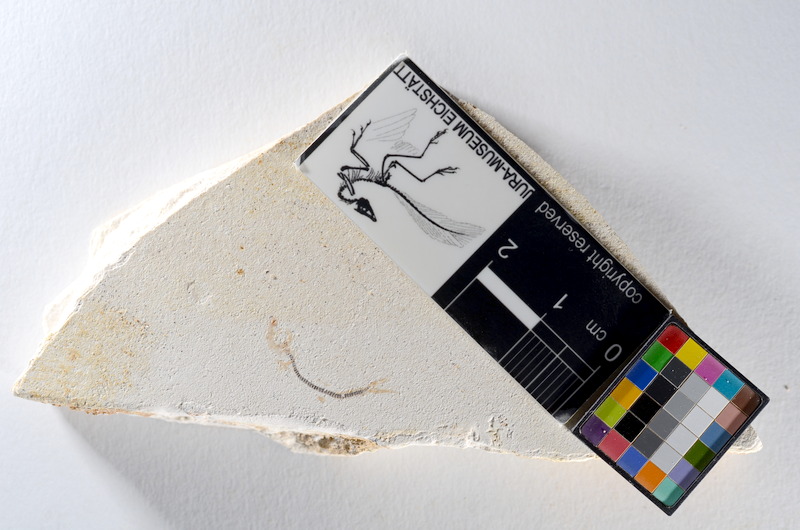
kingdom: Animalia
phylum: Chordata
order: Salmoniformes
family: Orthogonikleithridae
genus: Orthogonikleithrus
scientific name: Orthogonikleithrus hoelli
